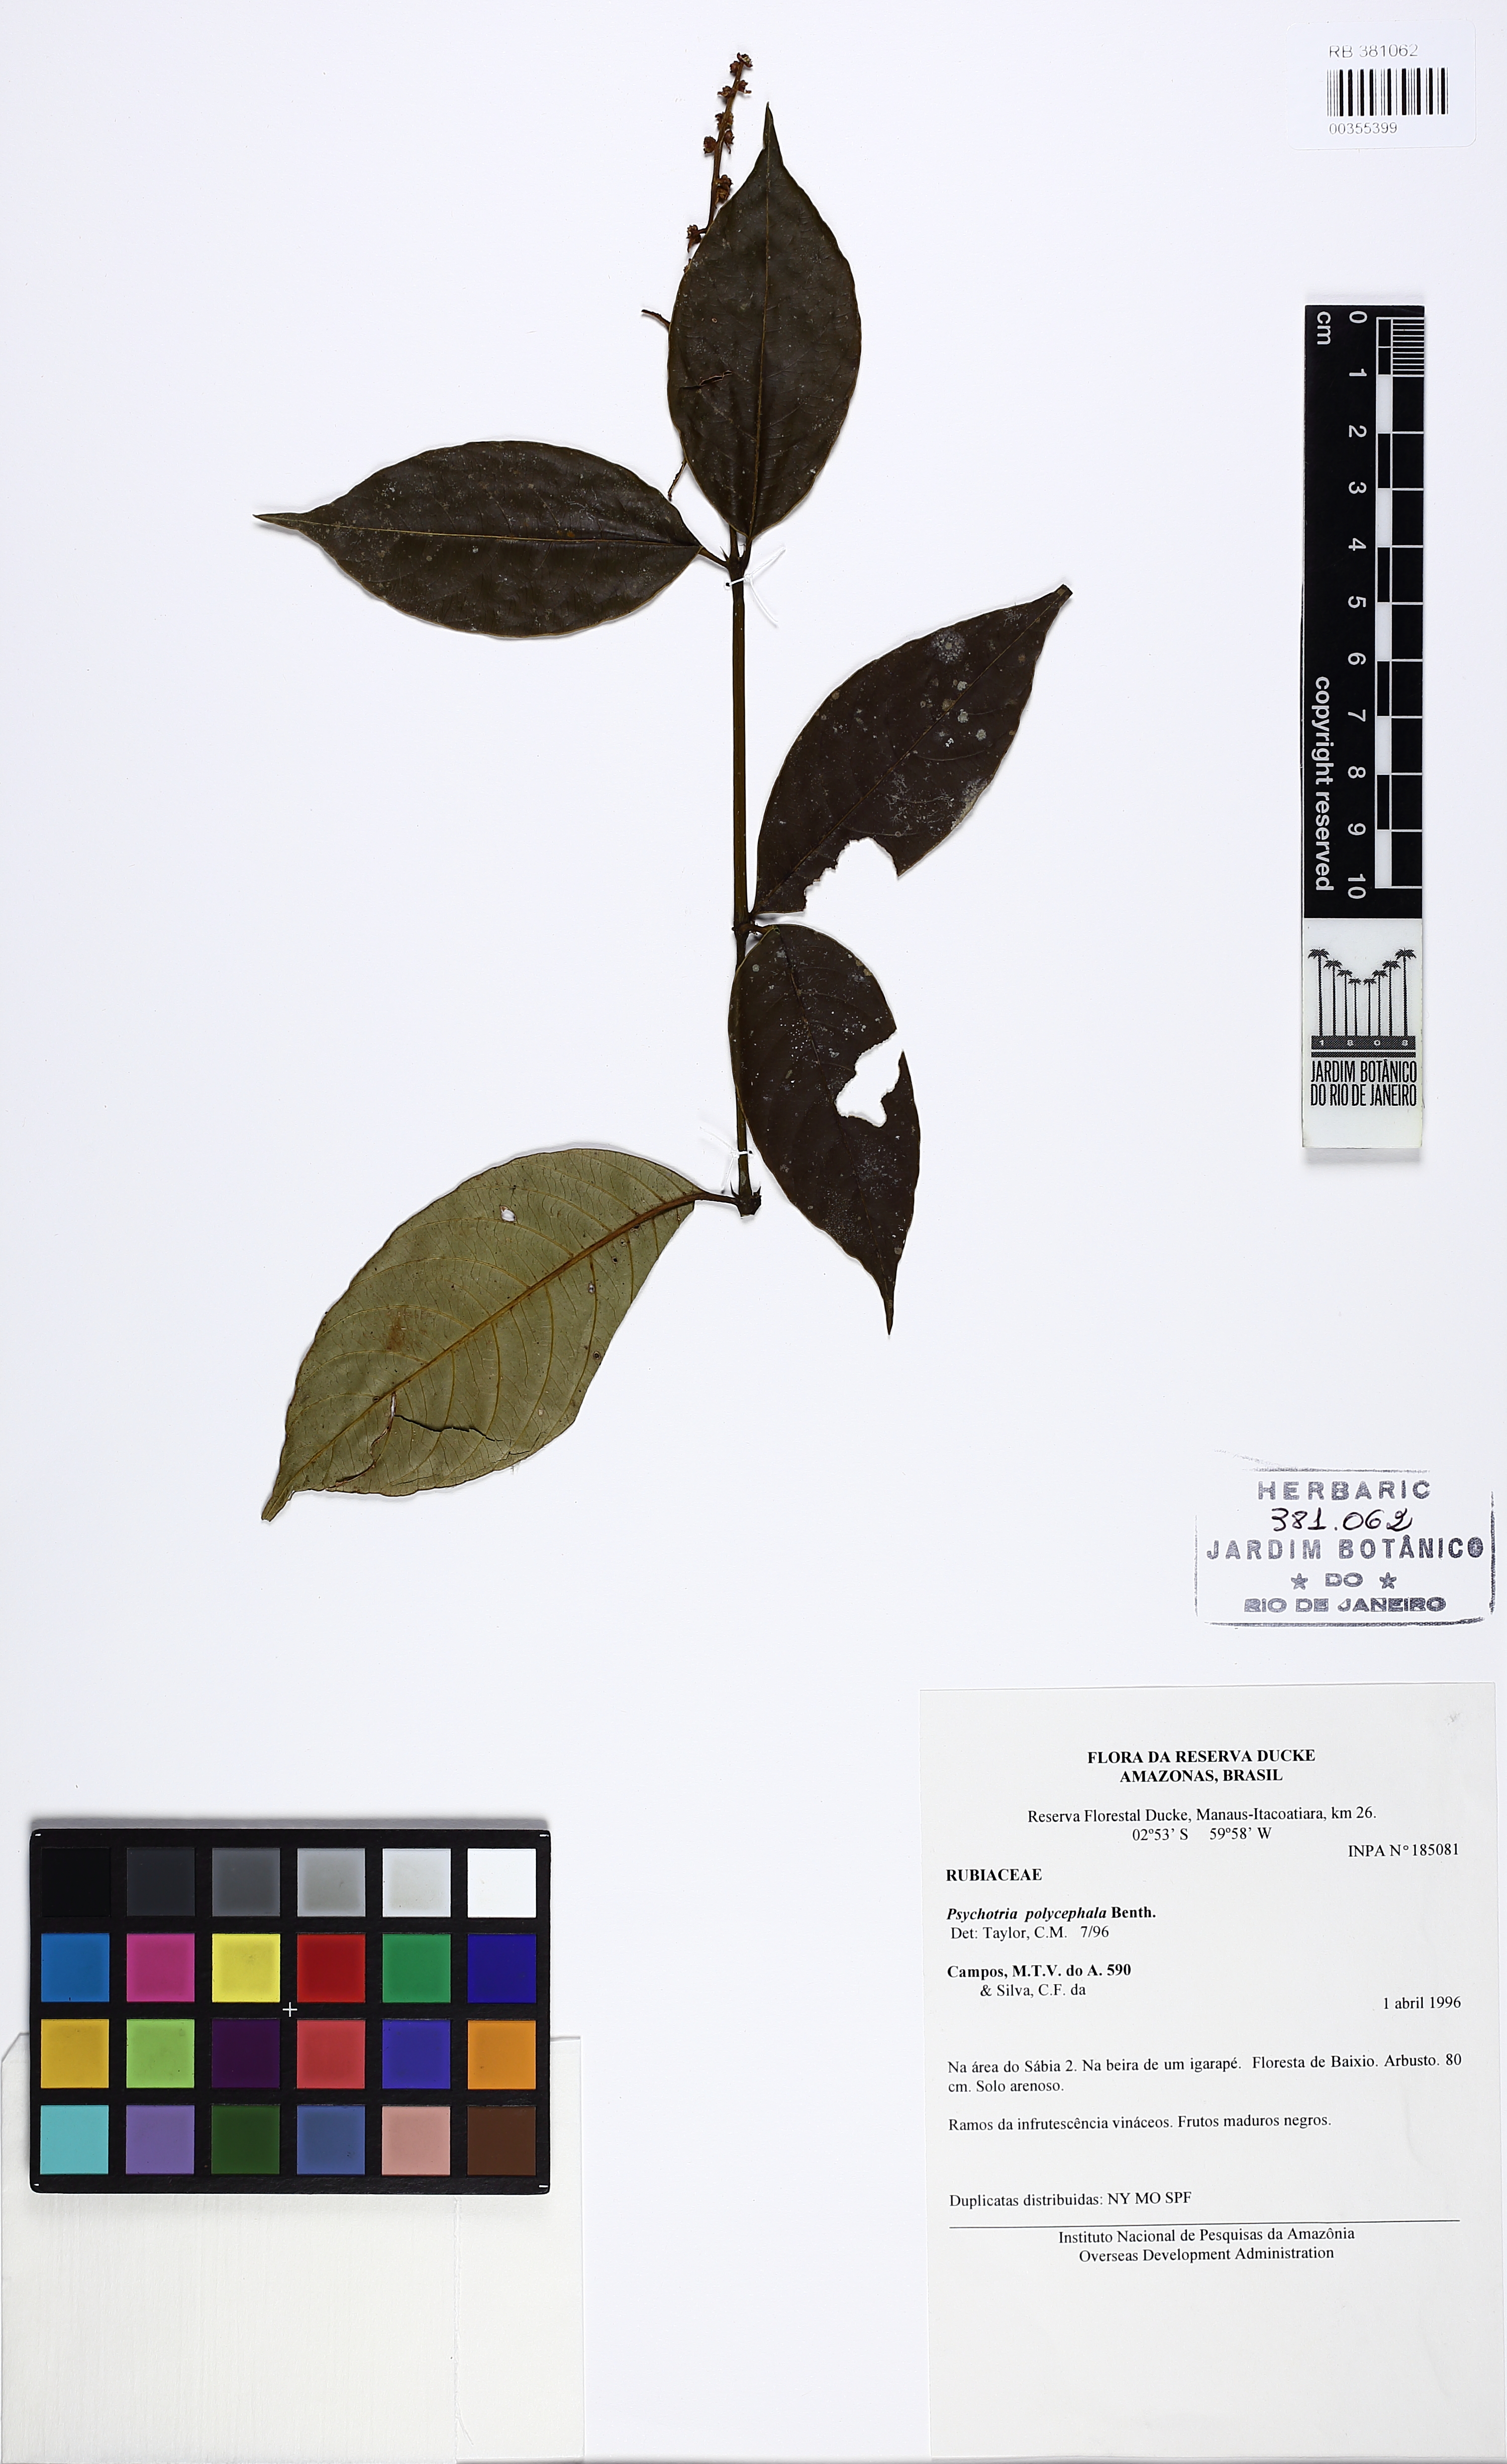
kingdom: Plantae
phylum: Tracheophyta
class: Magnoliopsida
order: Gentianales
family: Rubiaceae
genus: Palicourea
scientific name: Palicourea polycephala
